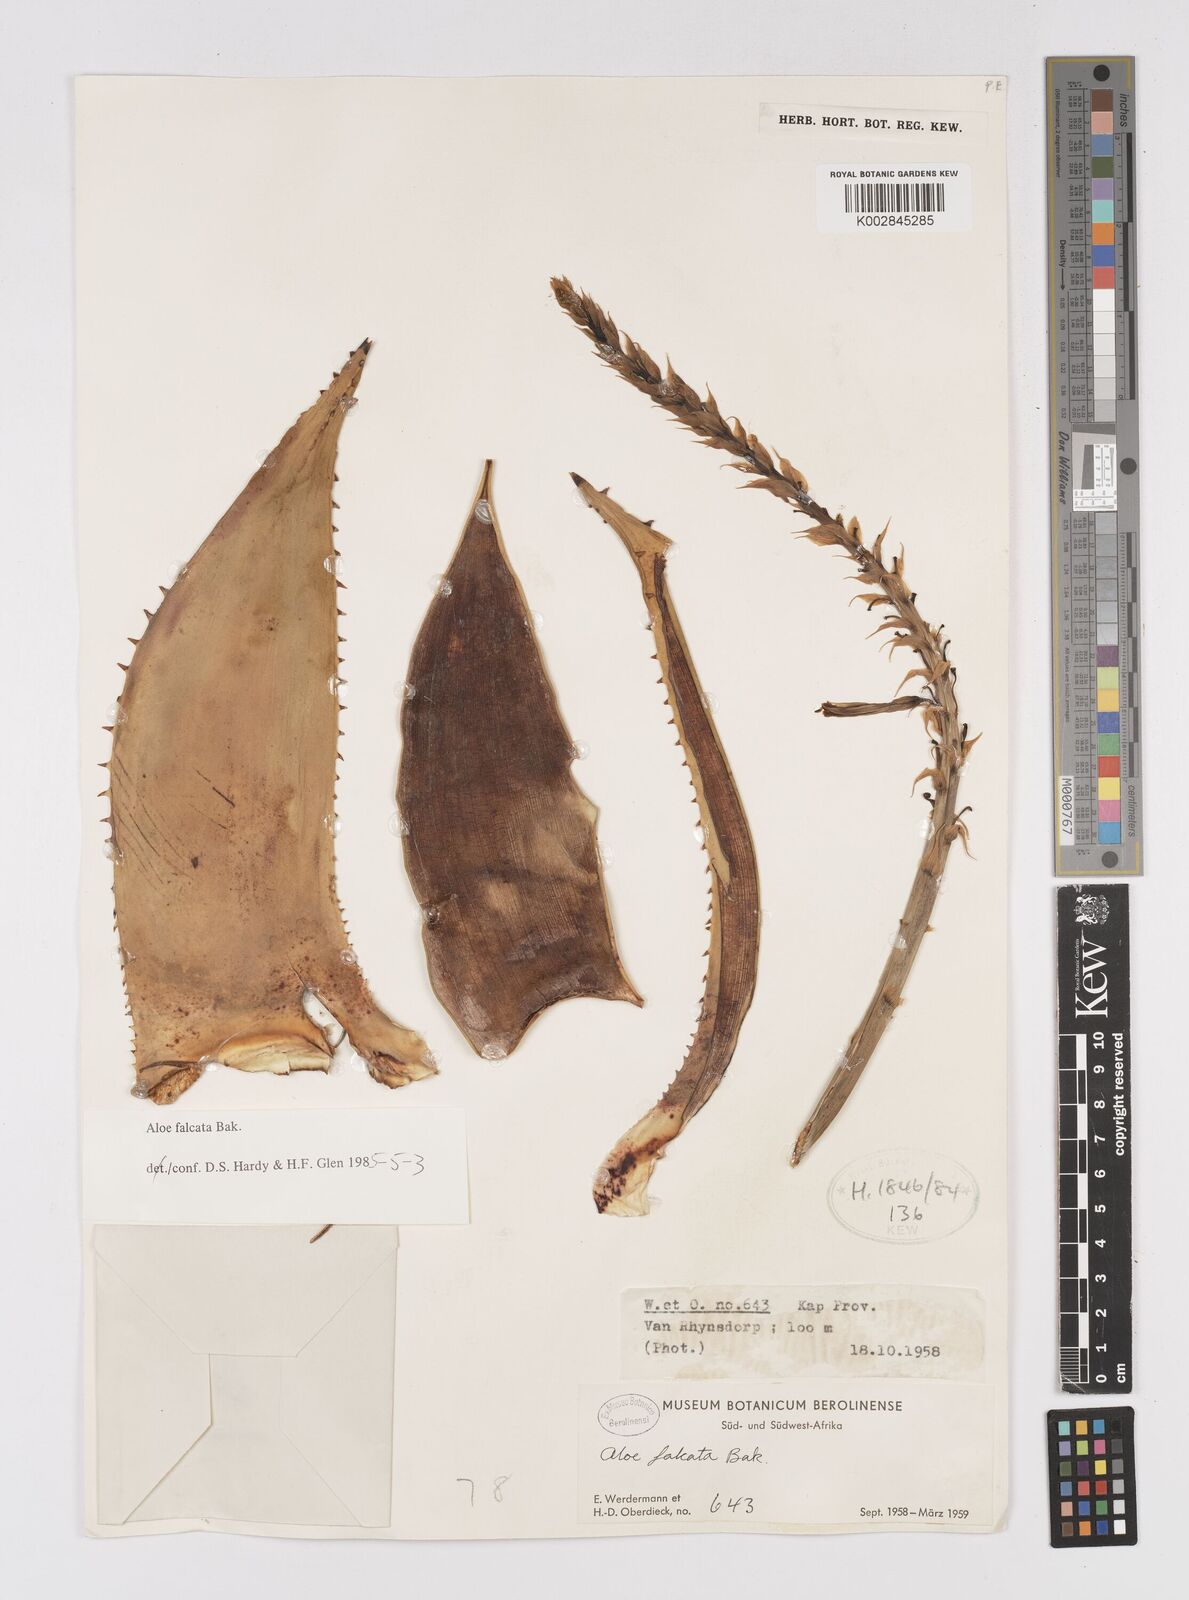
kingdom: Plantae
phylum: Tracheophyta
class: Liliopsida
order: Asparagales
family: Asphodelaceae
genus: Aloe
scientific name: Aloe falcata
